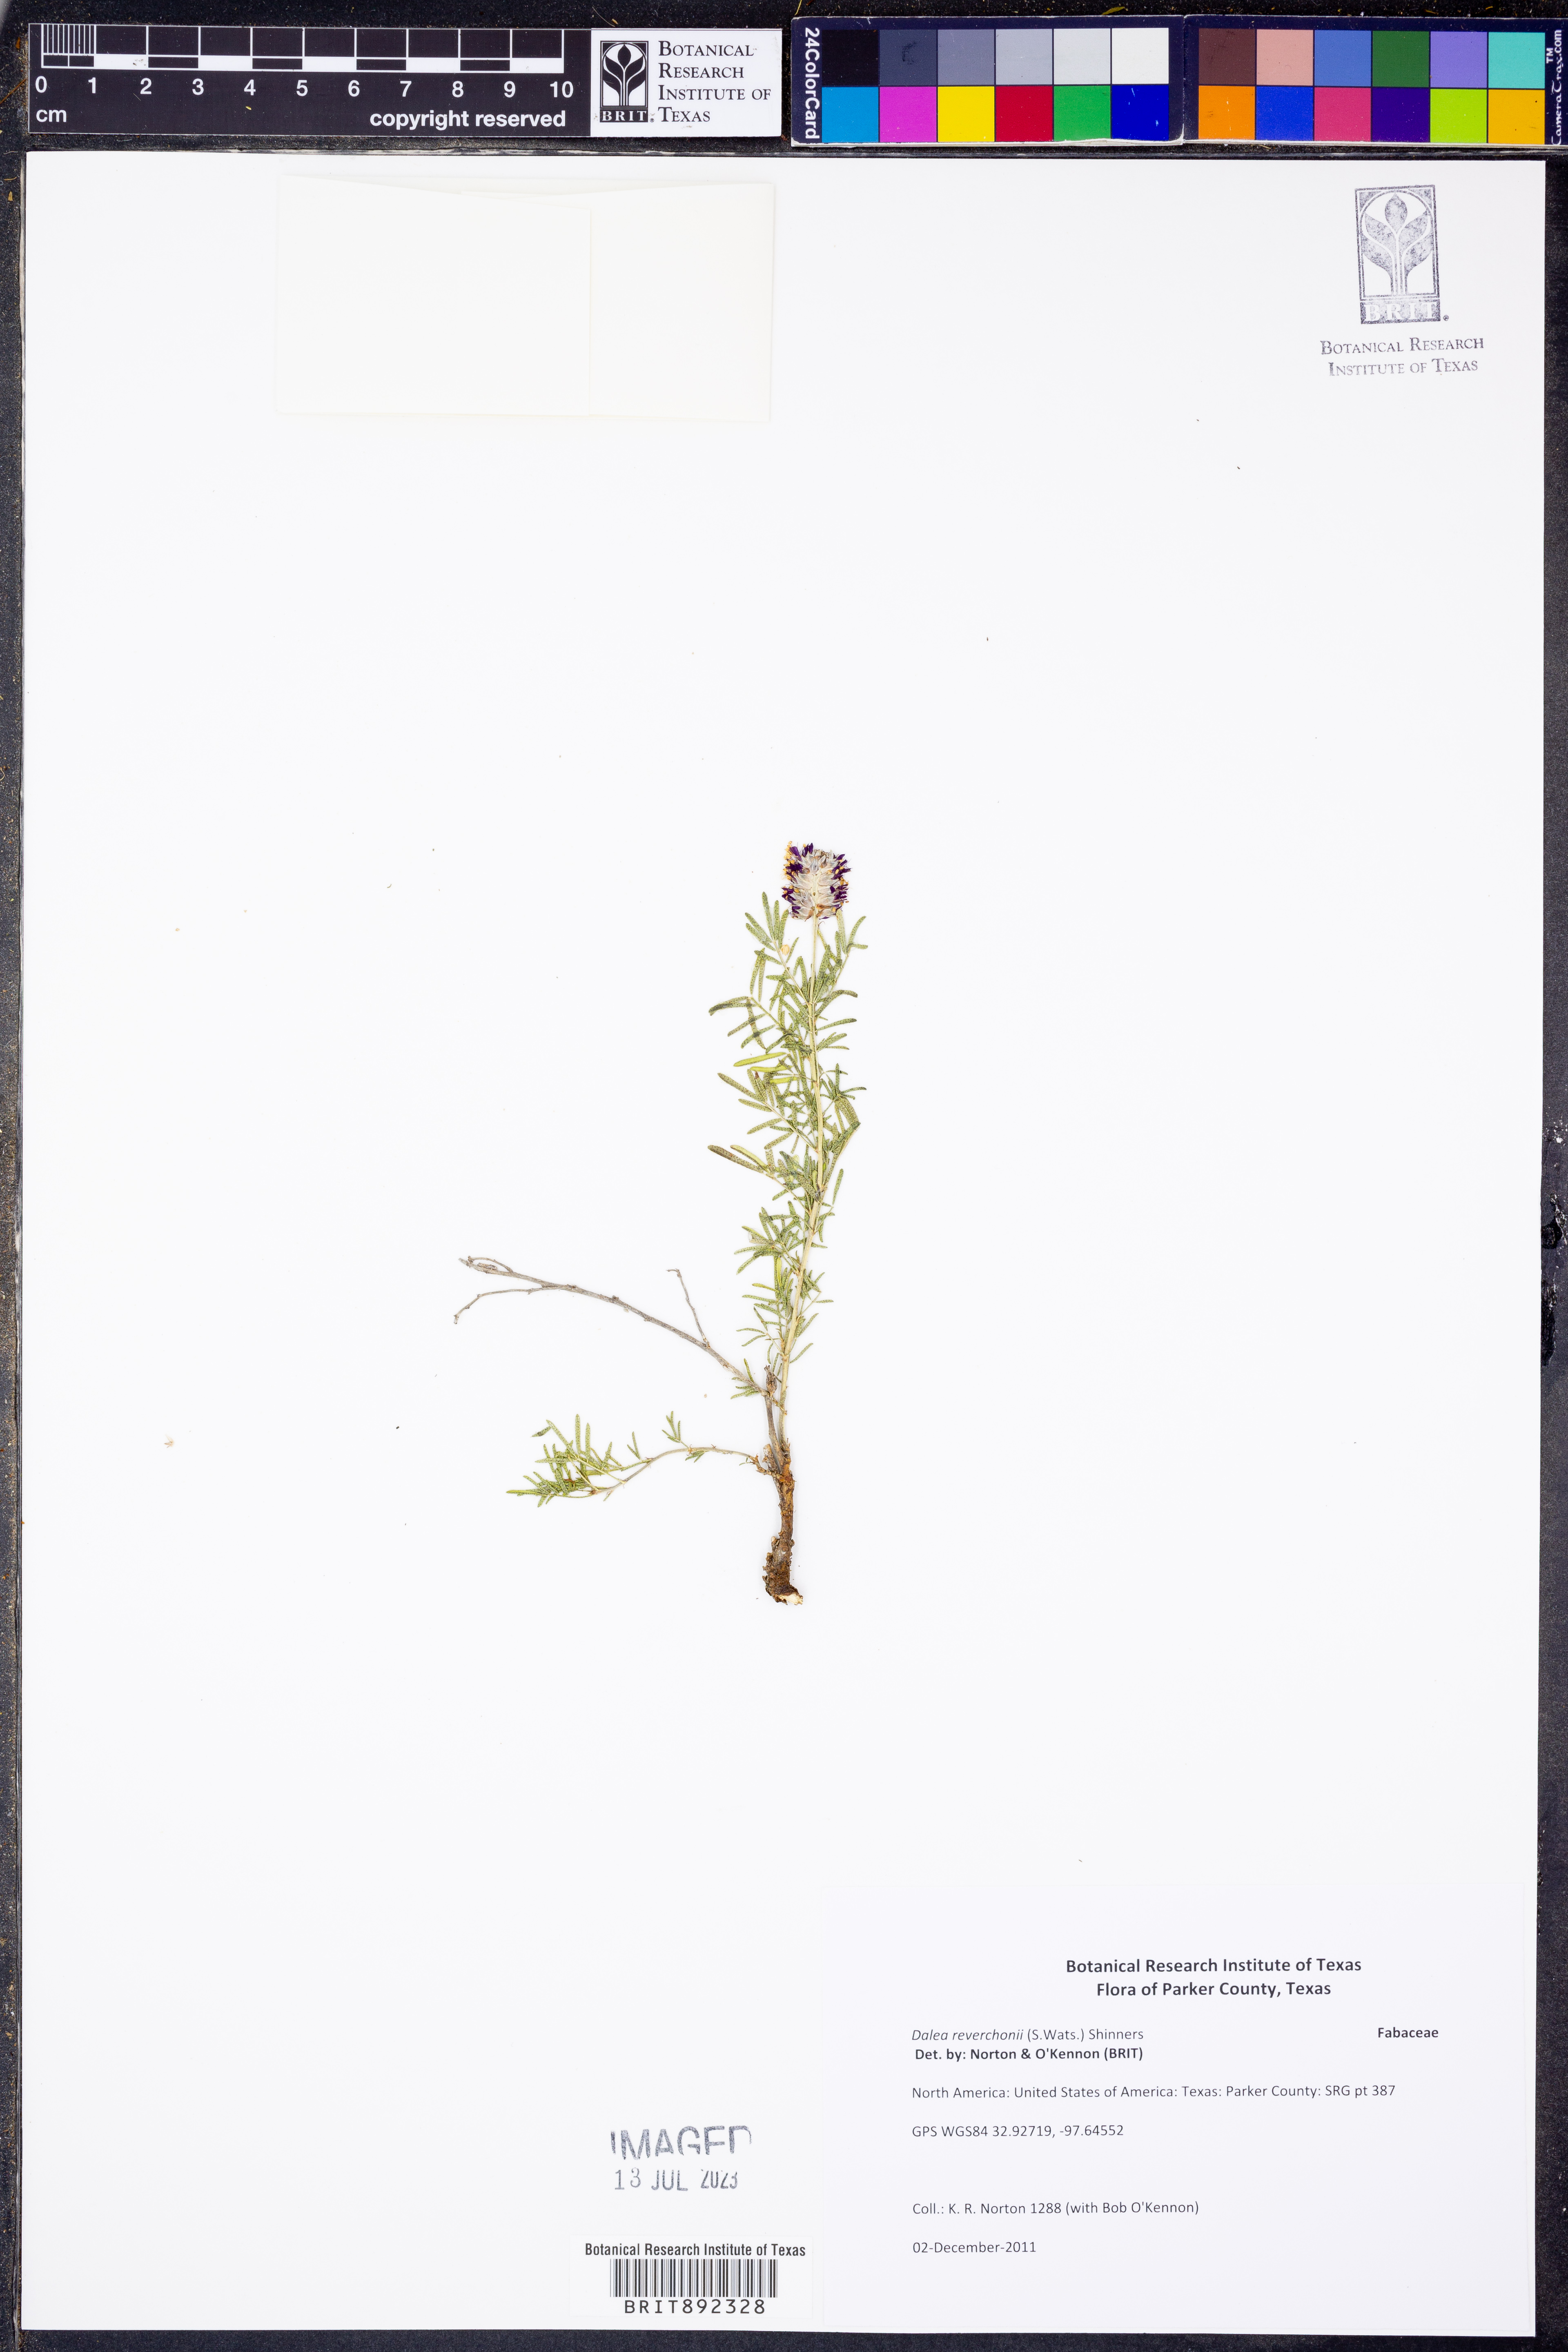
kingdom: Plantae
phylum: Tracheophyta
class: Magnoliopsida
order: Fabales
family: Fabaceae
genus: Dalea
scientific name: Dalea reverchonii
